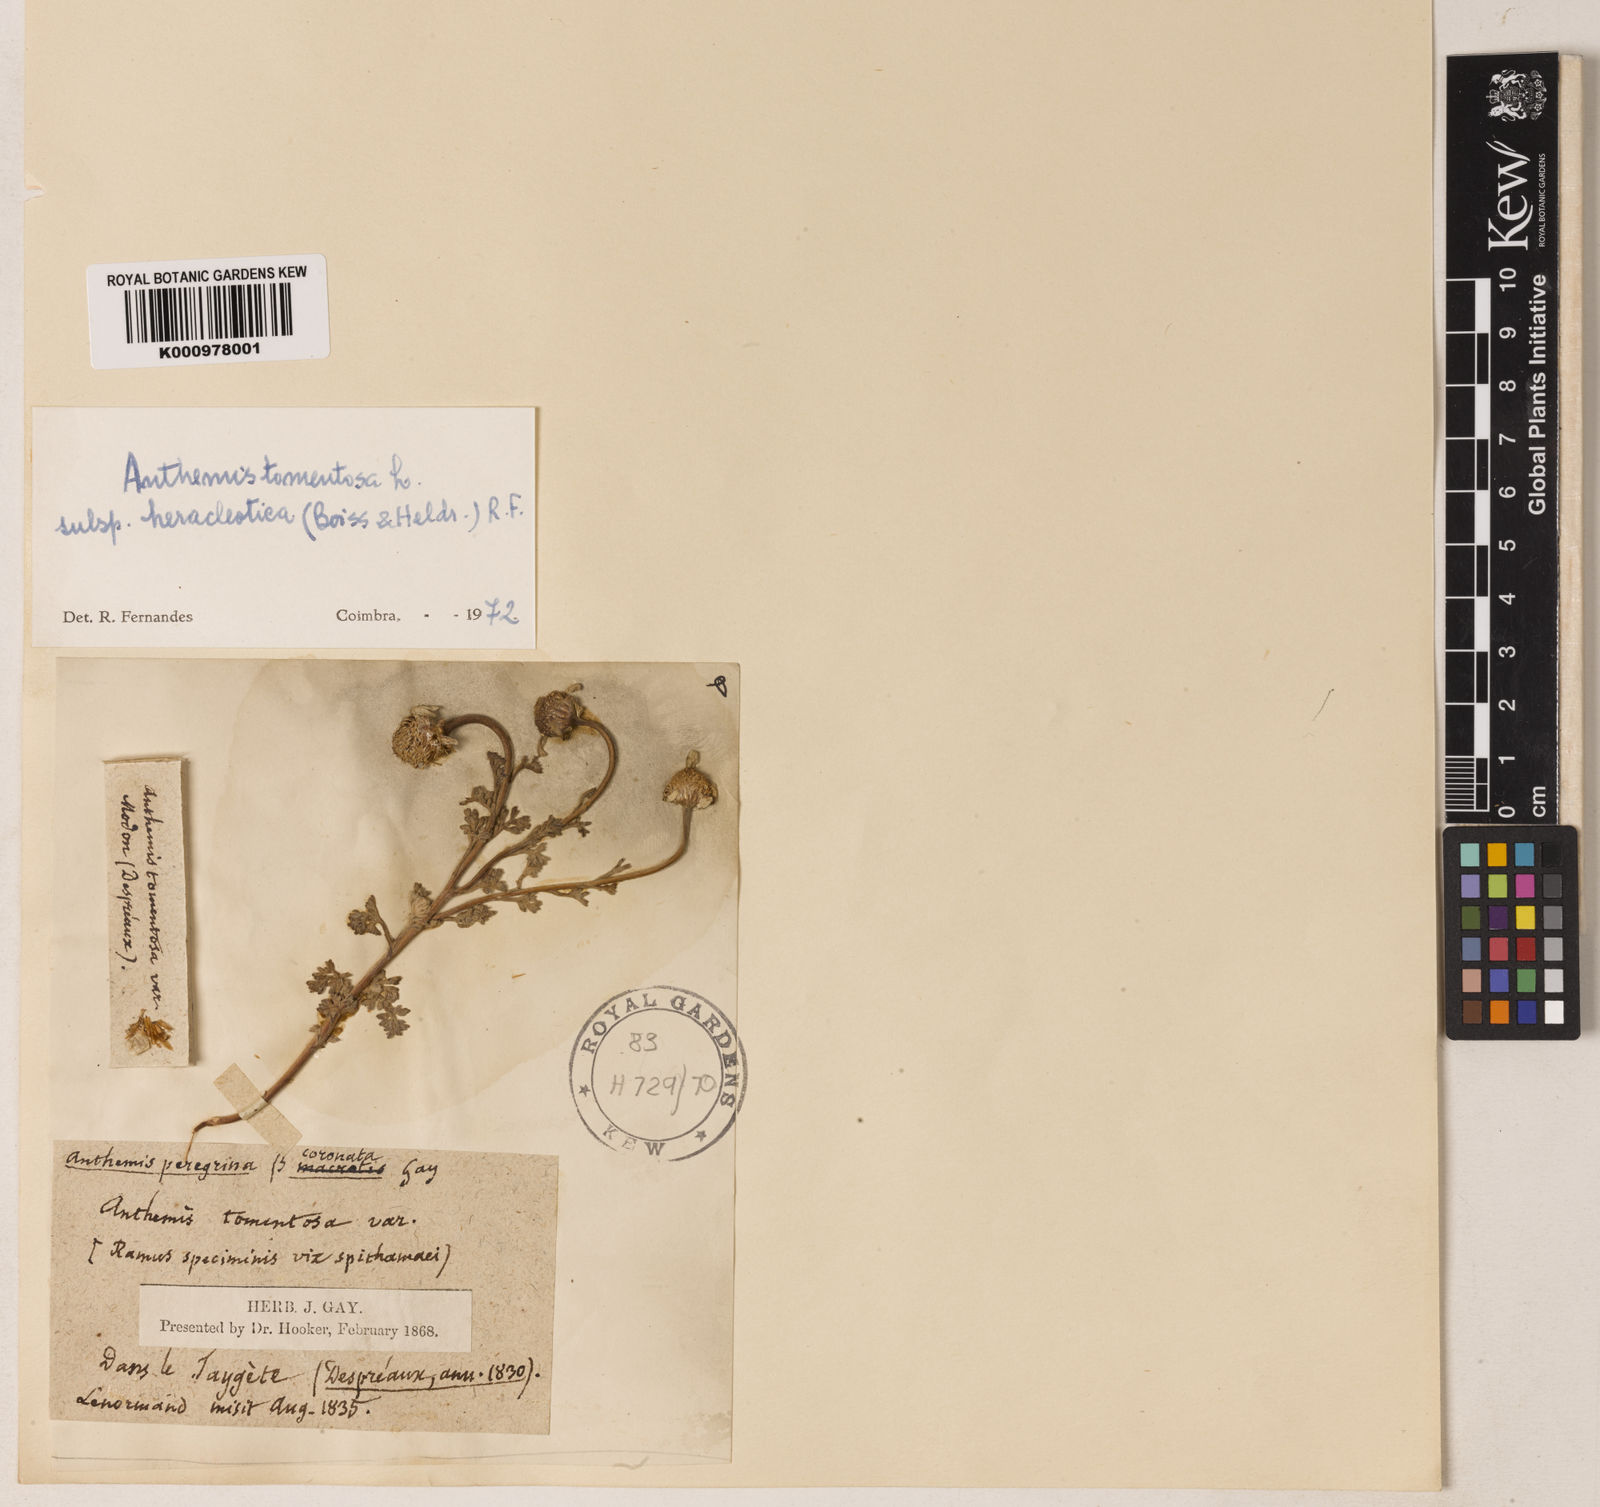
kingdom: Plantae
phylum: Tracheophyta
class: Magnoliopsida
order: Asterales
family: Asteraceae
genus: Anthemis
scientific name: Anthemis tomentosa
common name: Woolly chamomile
